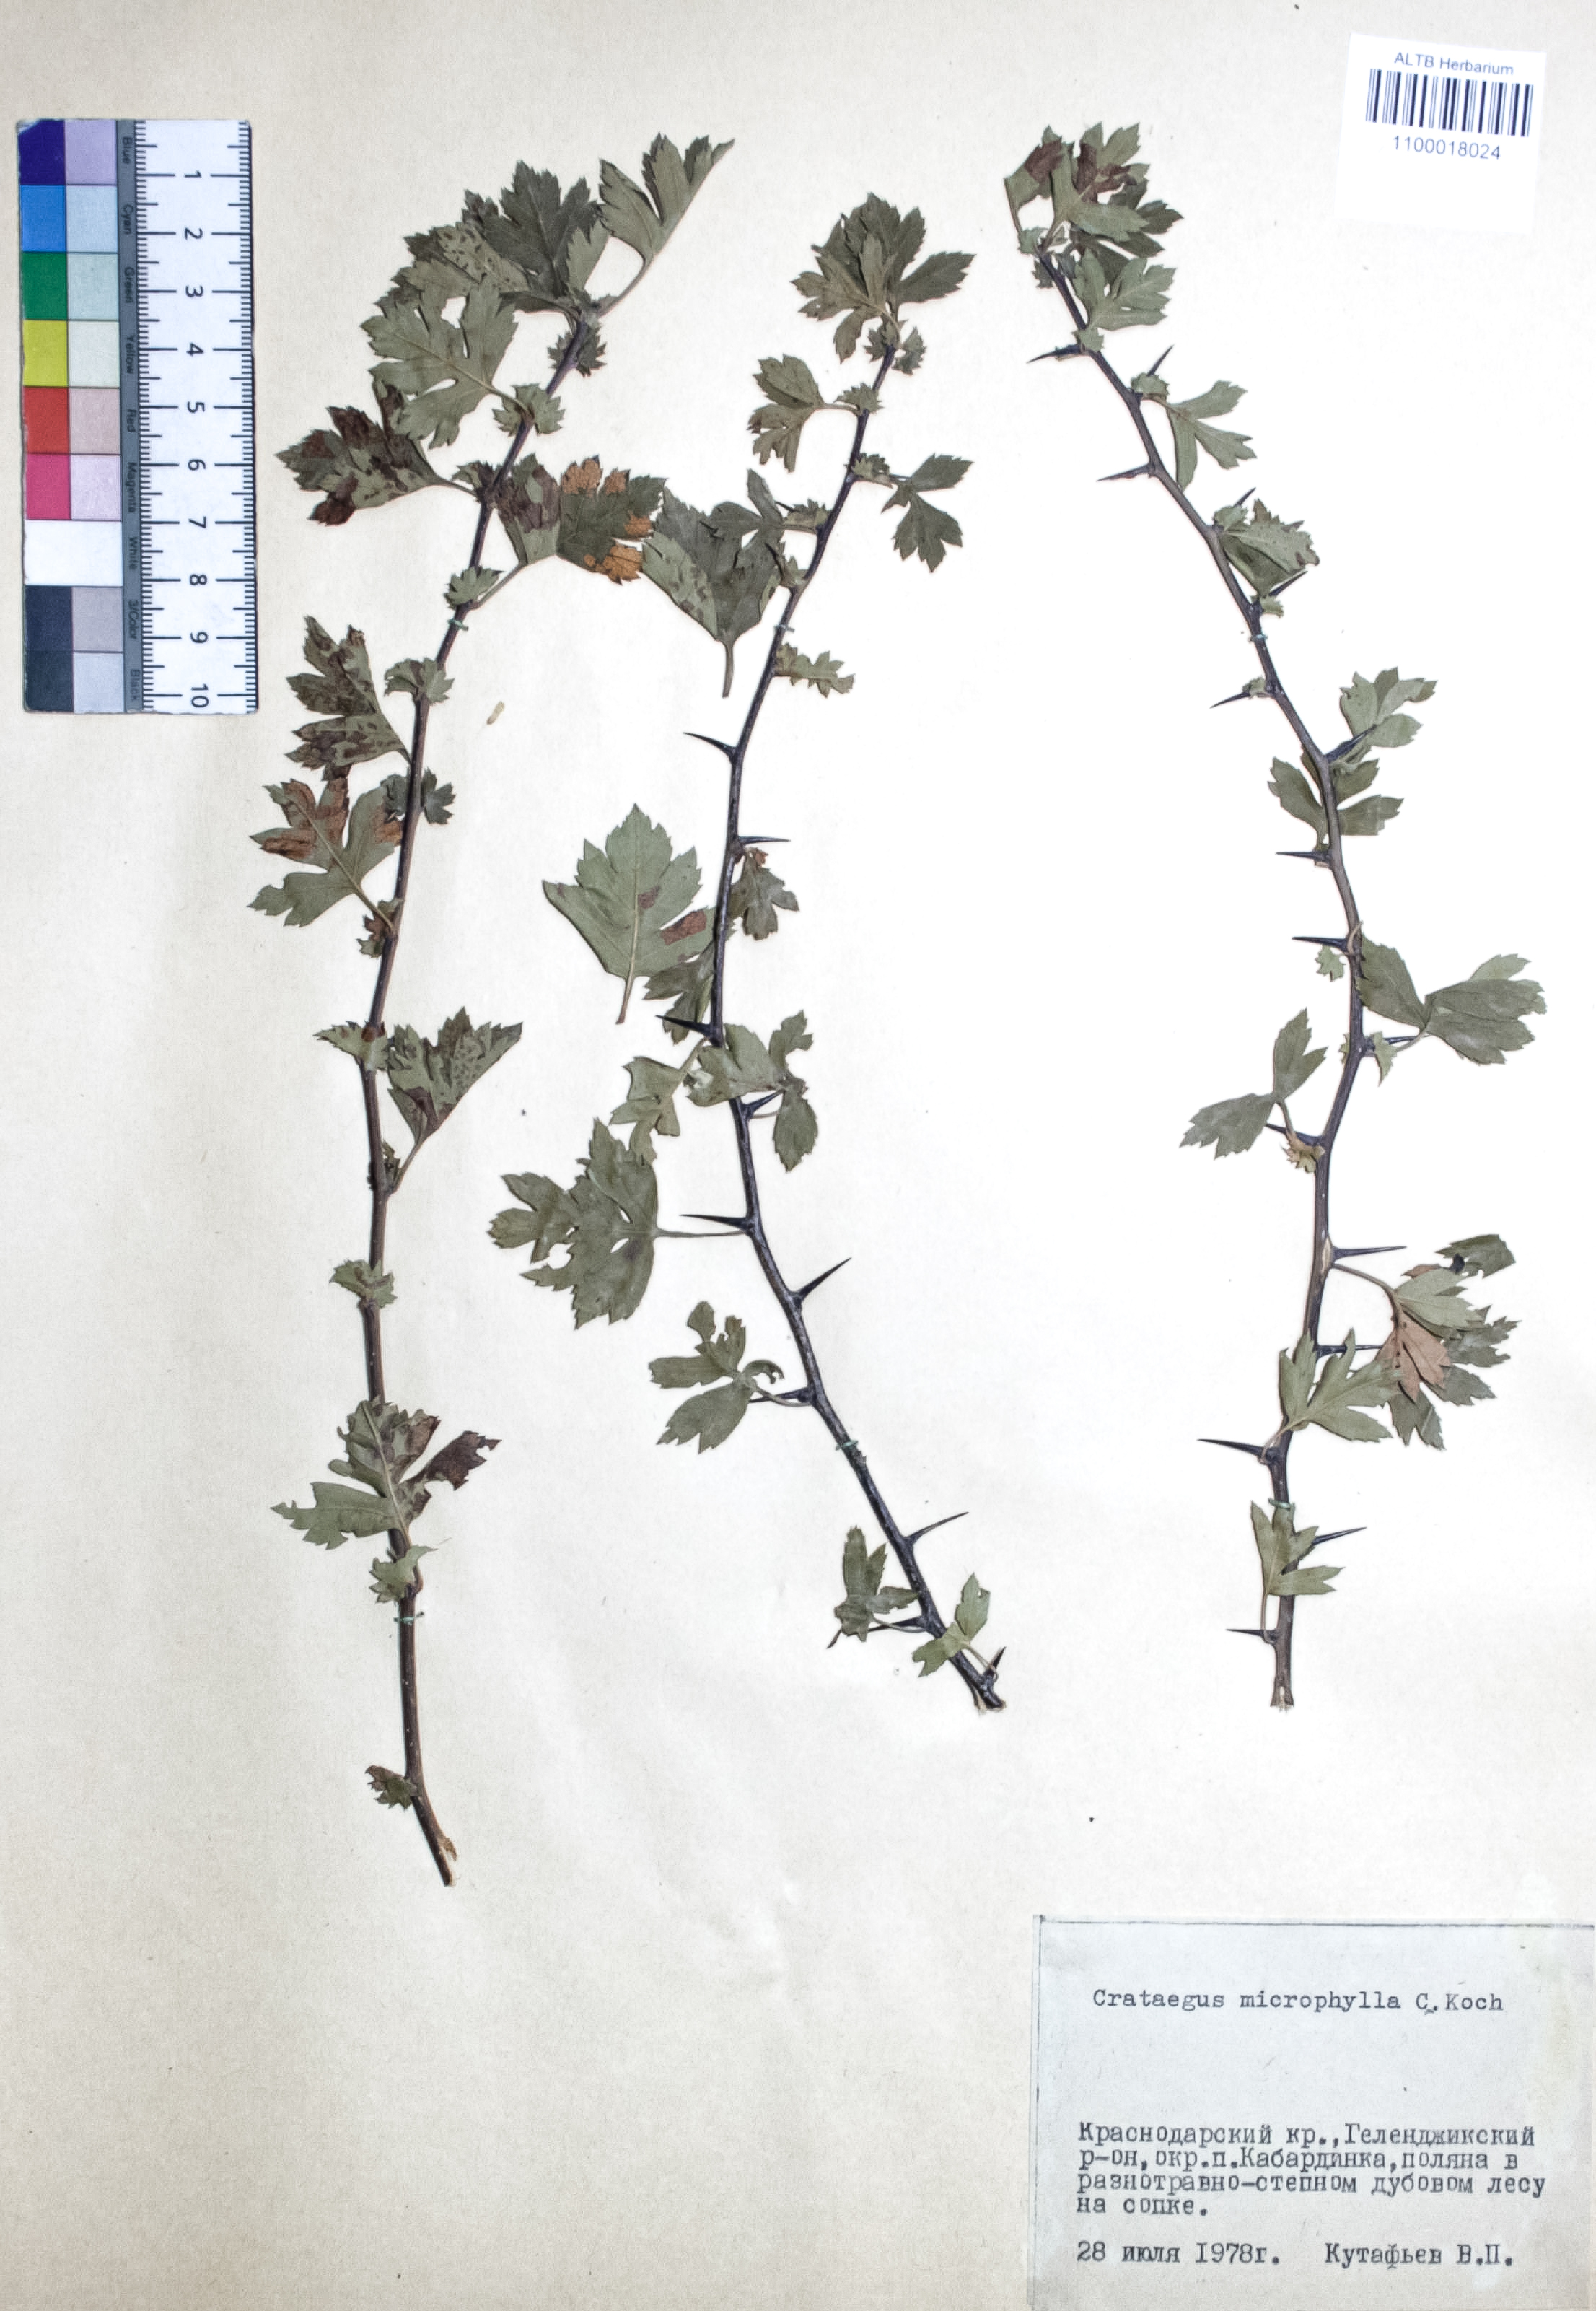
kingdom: Plantae
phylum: Tracheophyta
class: Magnoliopsida
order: Rosales
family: Rosaceae
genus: Crataegus
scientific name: Crataegus microphylla
